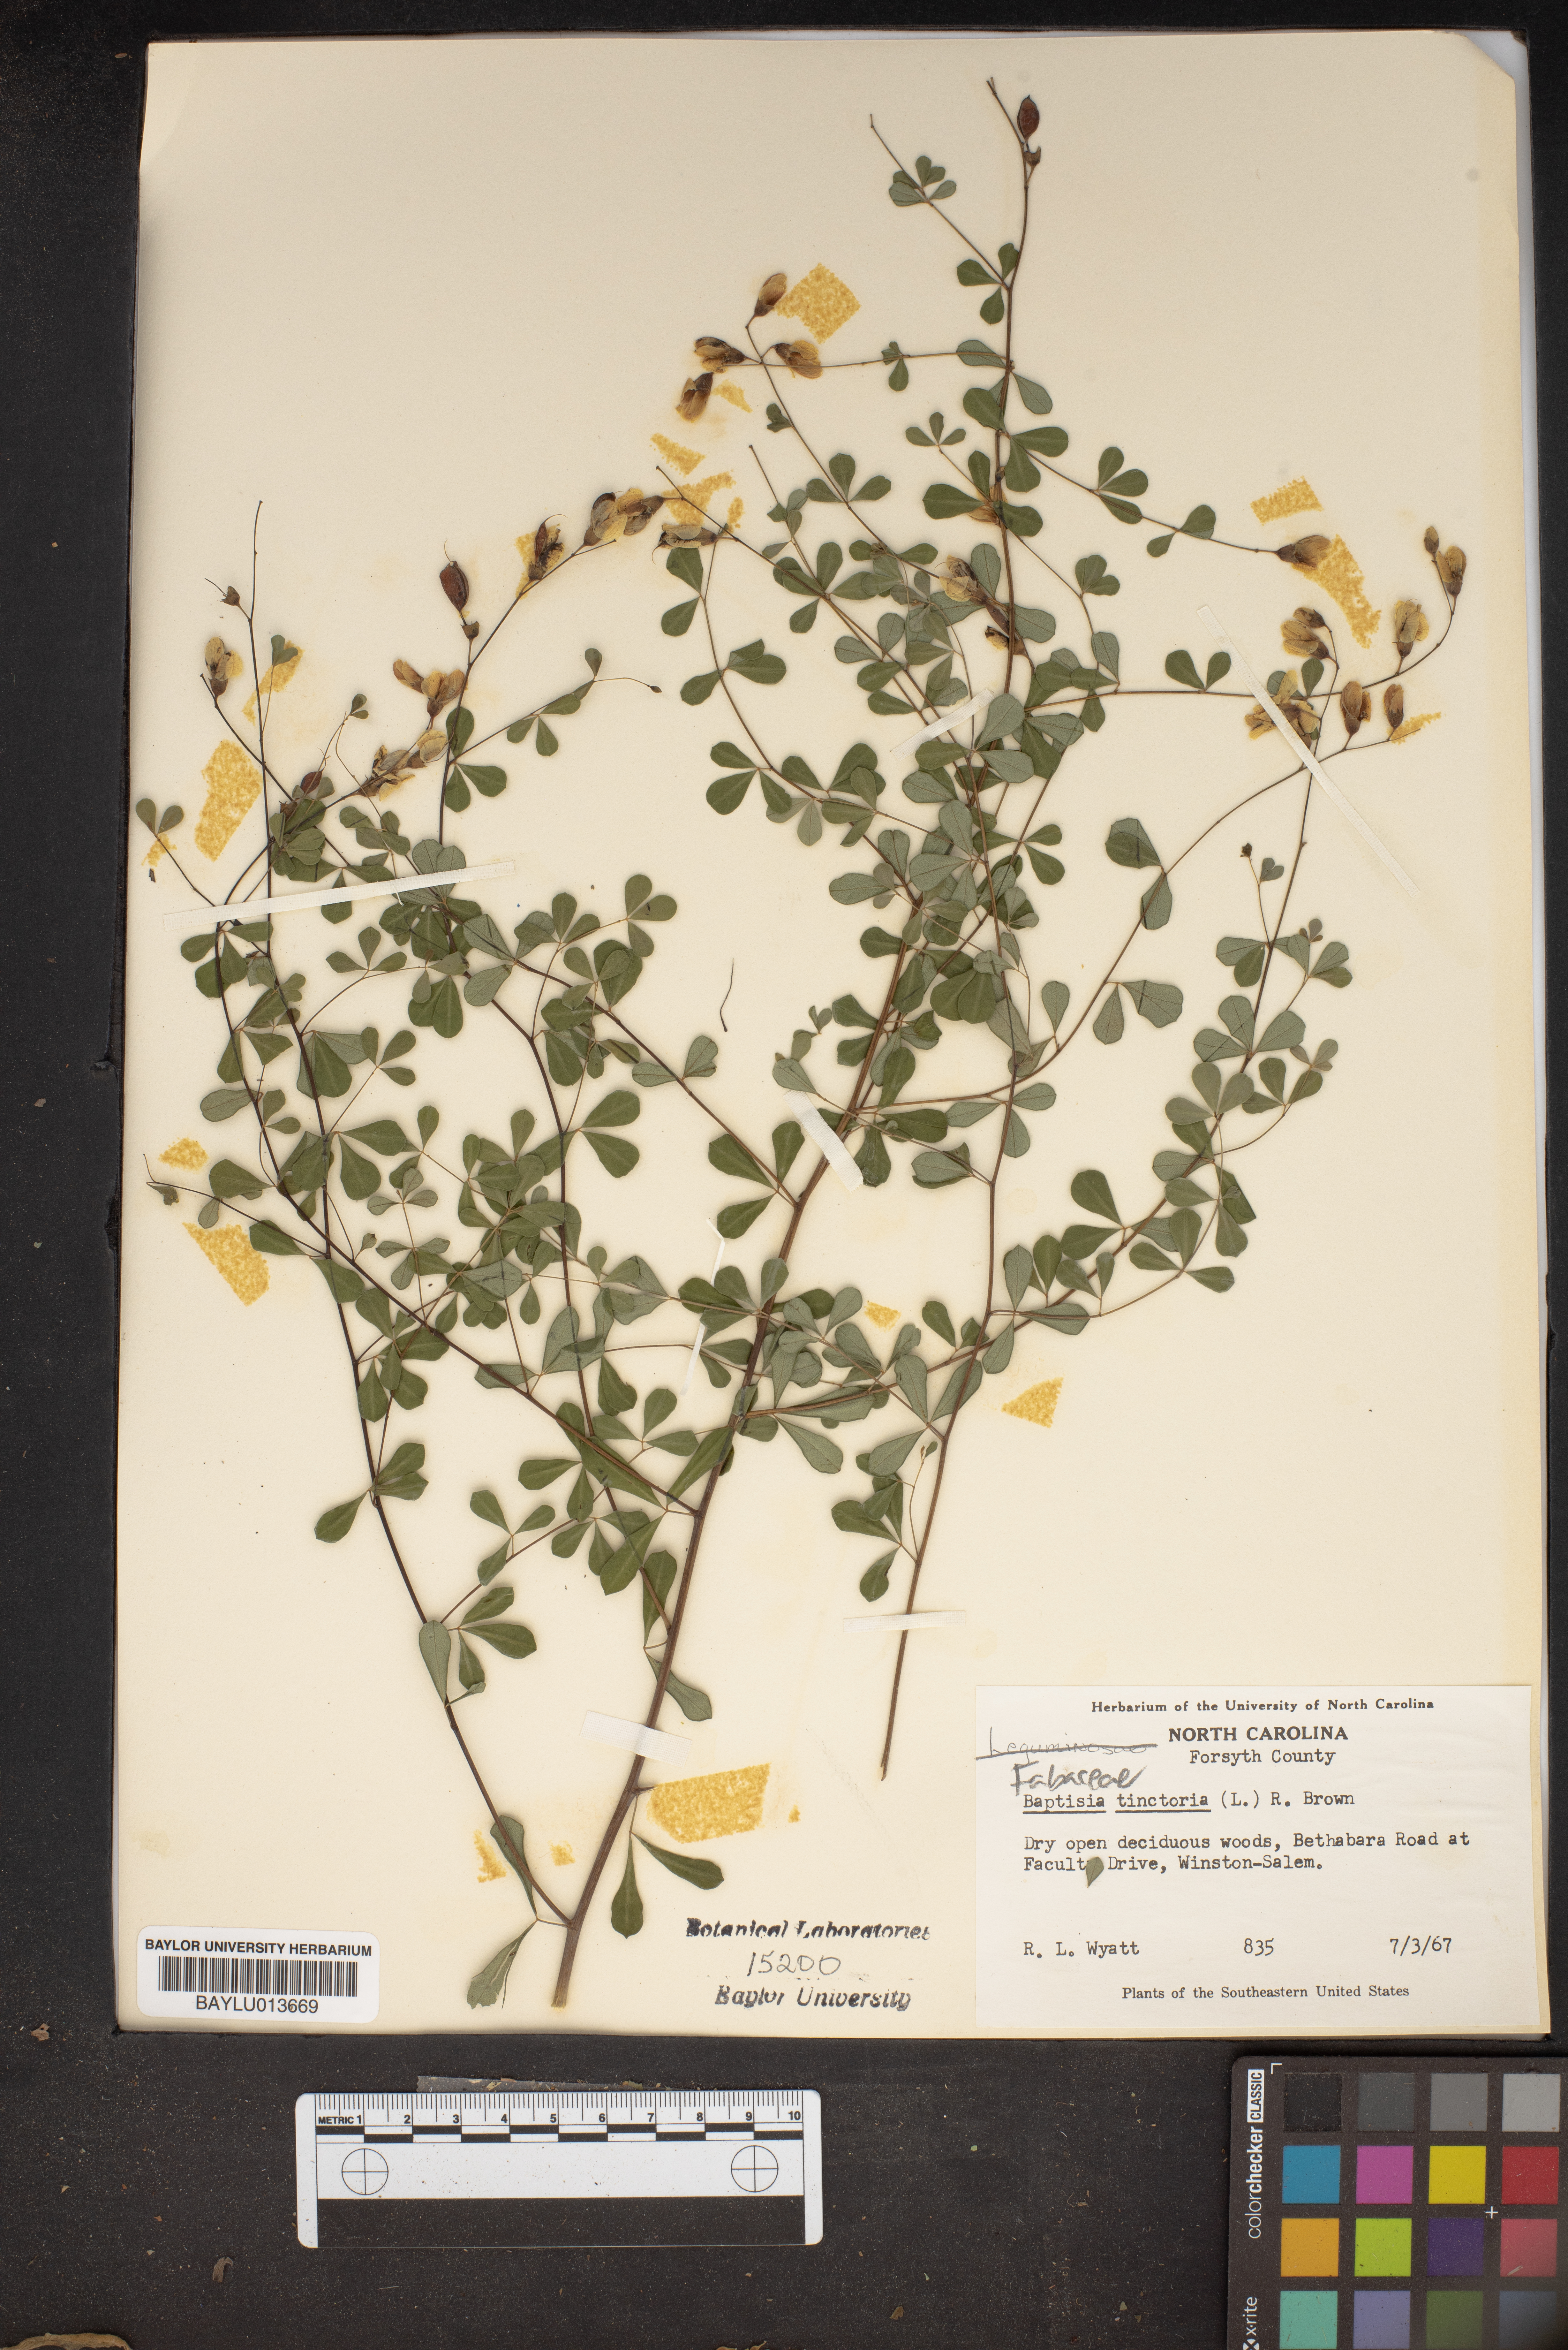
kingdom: Plantae
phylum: Tracheophyta
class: Magnoliopsida
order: Fabales
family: Fabaceae
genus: Baptisia
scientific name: Baptisia tinctoria
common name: Wild indigo
